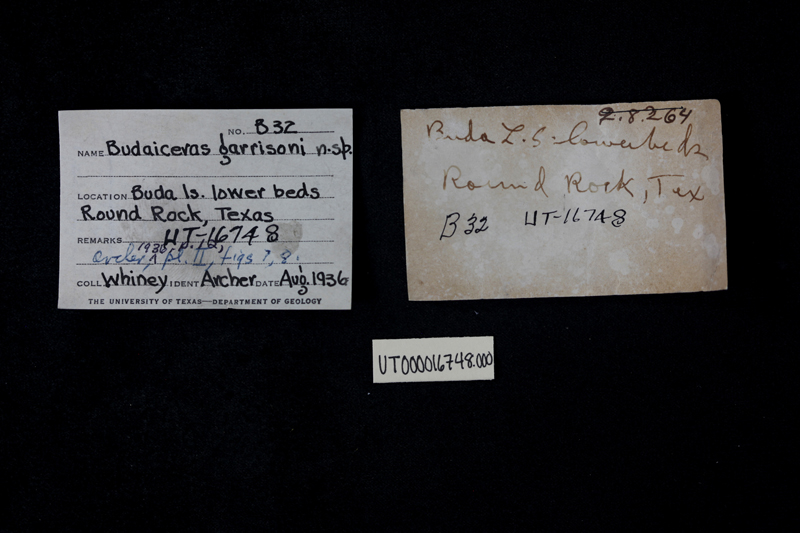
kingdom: Animalia
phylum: Mollusca
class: Cephalopoda
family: Lyelliceratidae
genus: Budaiceras
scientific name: Budaiceras
